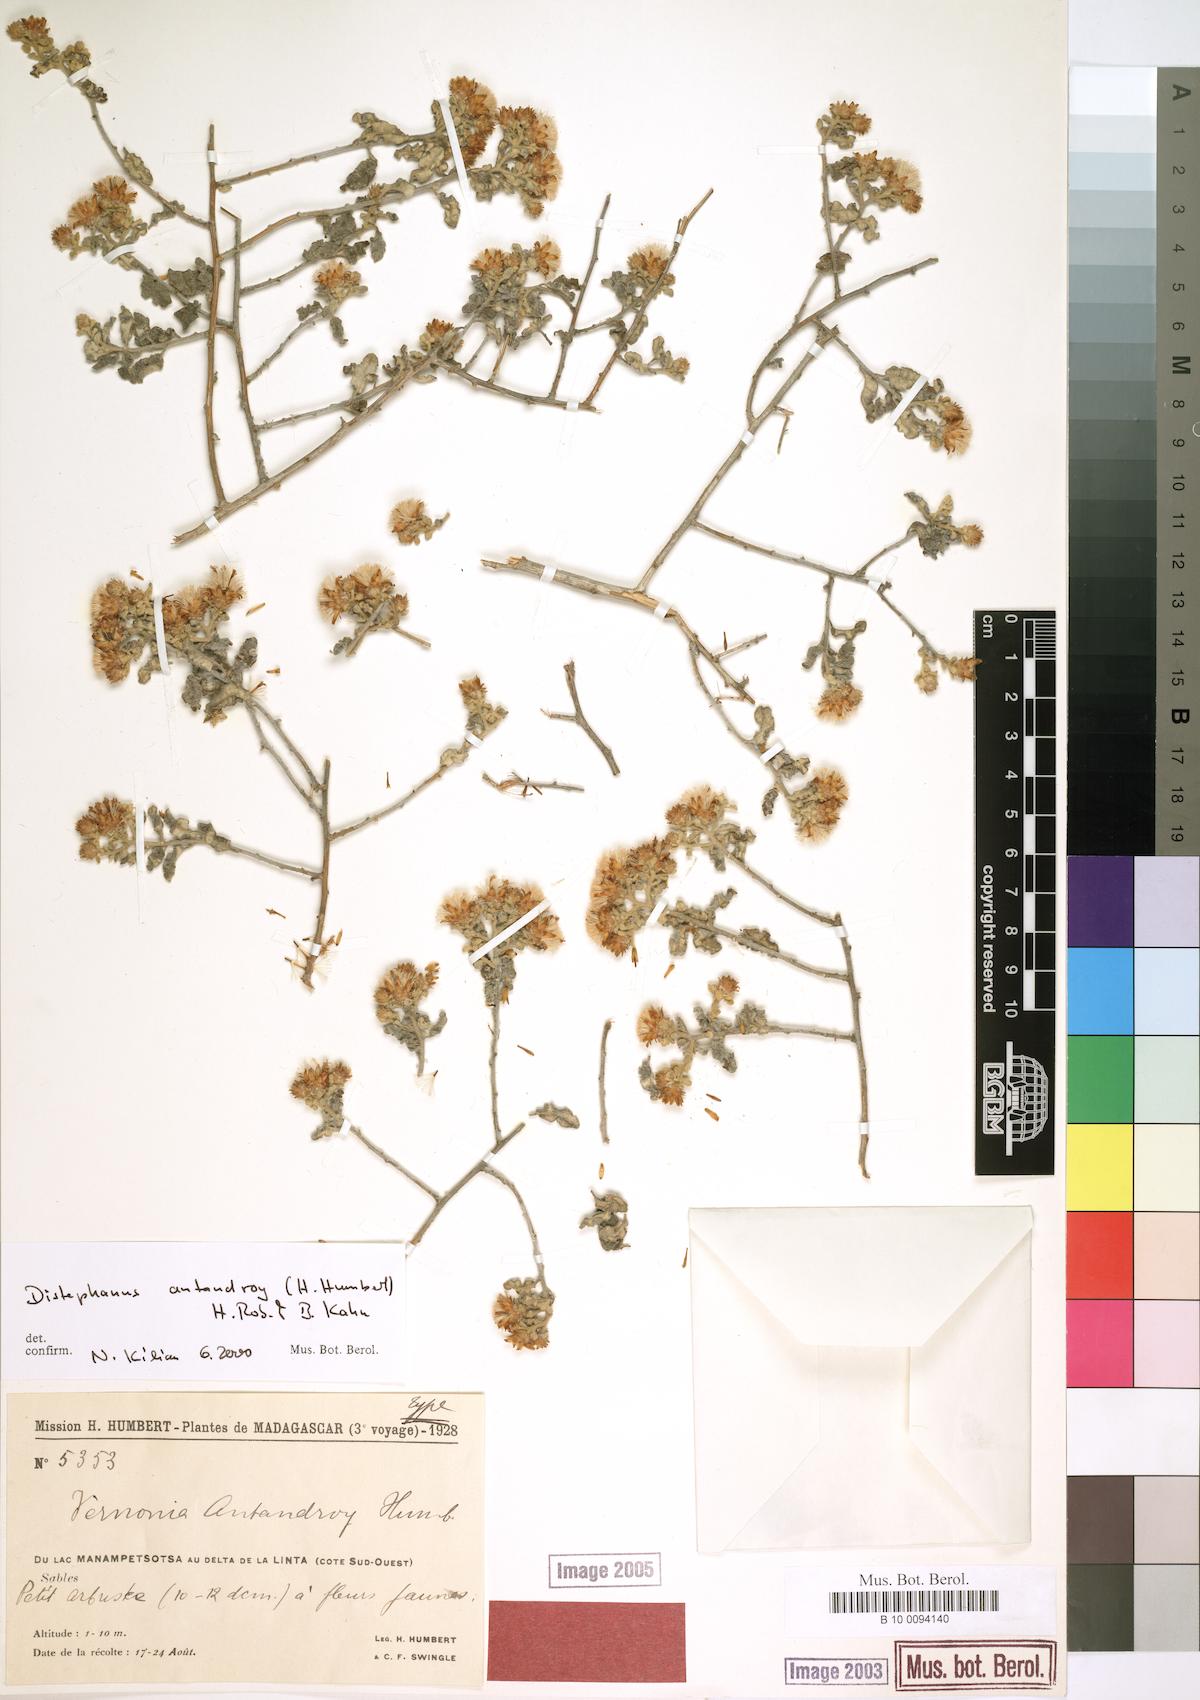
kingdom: Plantae
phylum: Tracheophyta
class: Magnoliopsida
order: Asterales
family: Asteraceae
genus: Distephanus
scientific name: Distephanus antandroy
